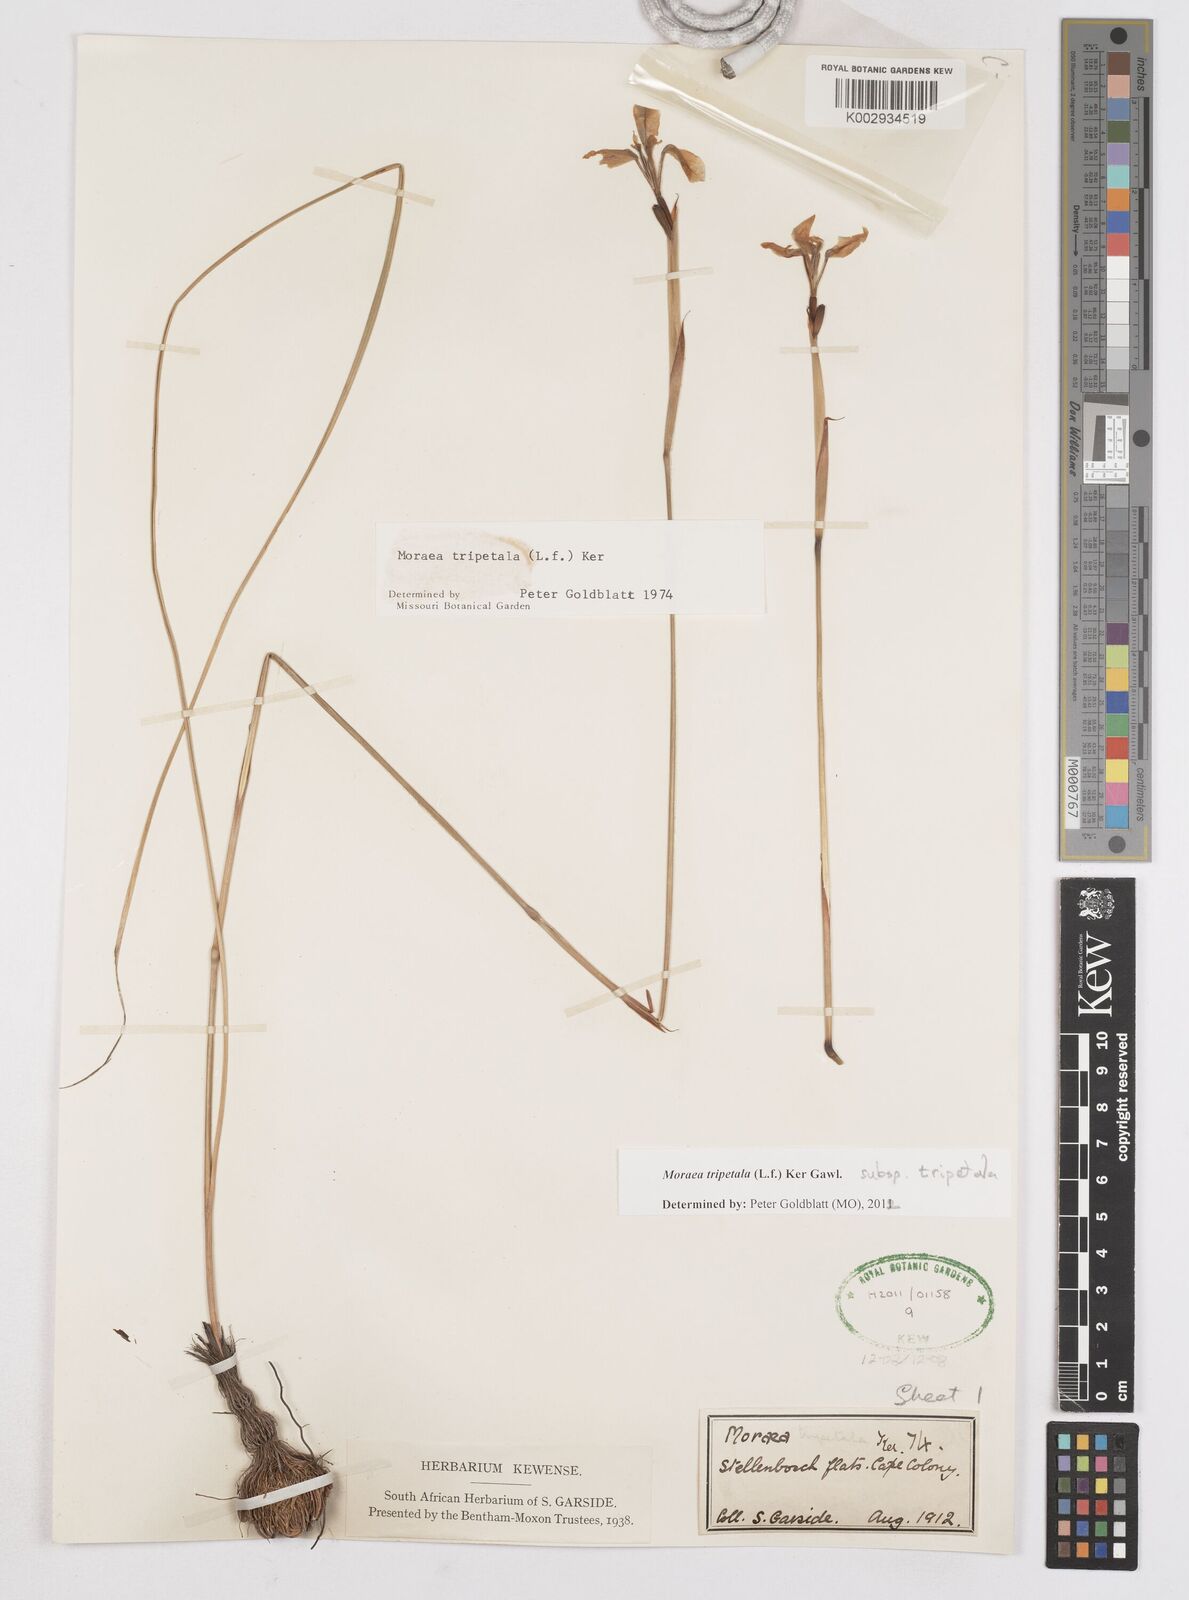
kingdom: Plantae
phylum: Tracheophyta
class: Liliopsida
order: Asparagales
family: Iridaceae
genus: Moraea
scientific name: Moraea tripetala
